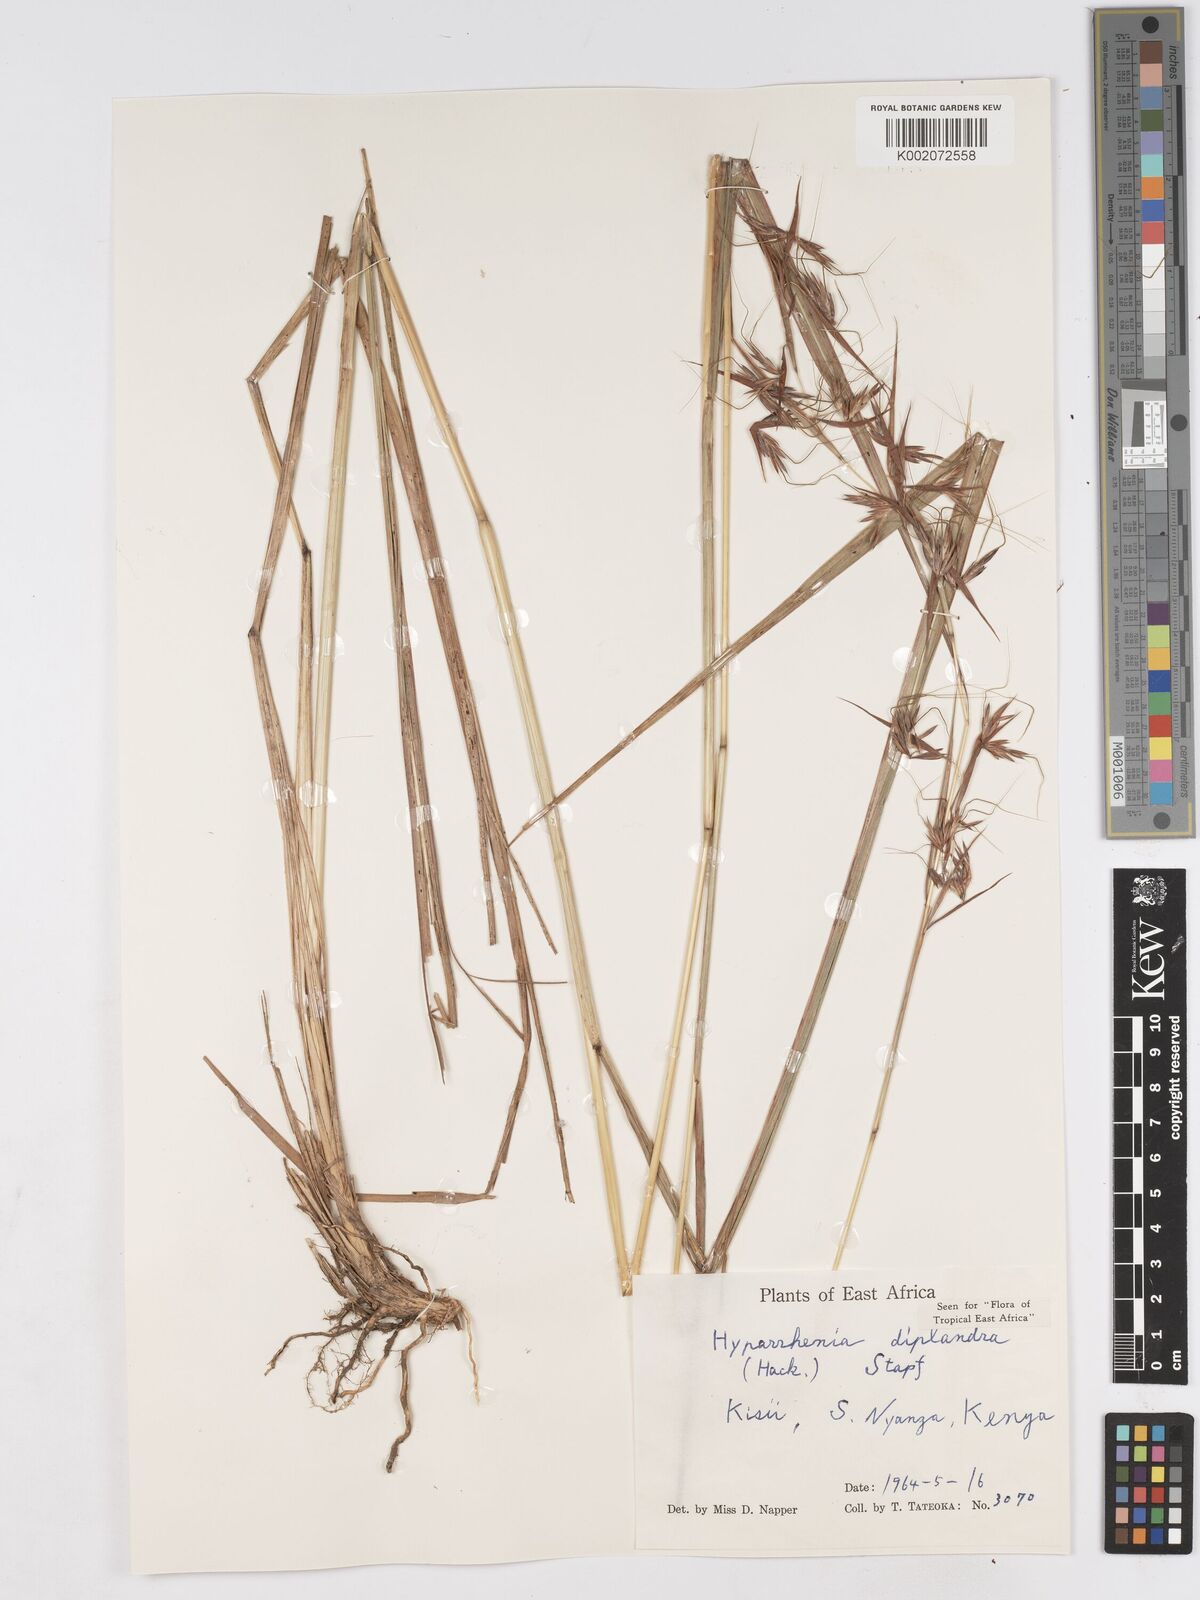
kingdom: Plantae
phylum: Tracheophyta
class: Liliopsida
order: Poales
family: Poaceae
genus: Hyparrhenia
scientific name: Hyparrhenia diplandra
